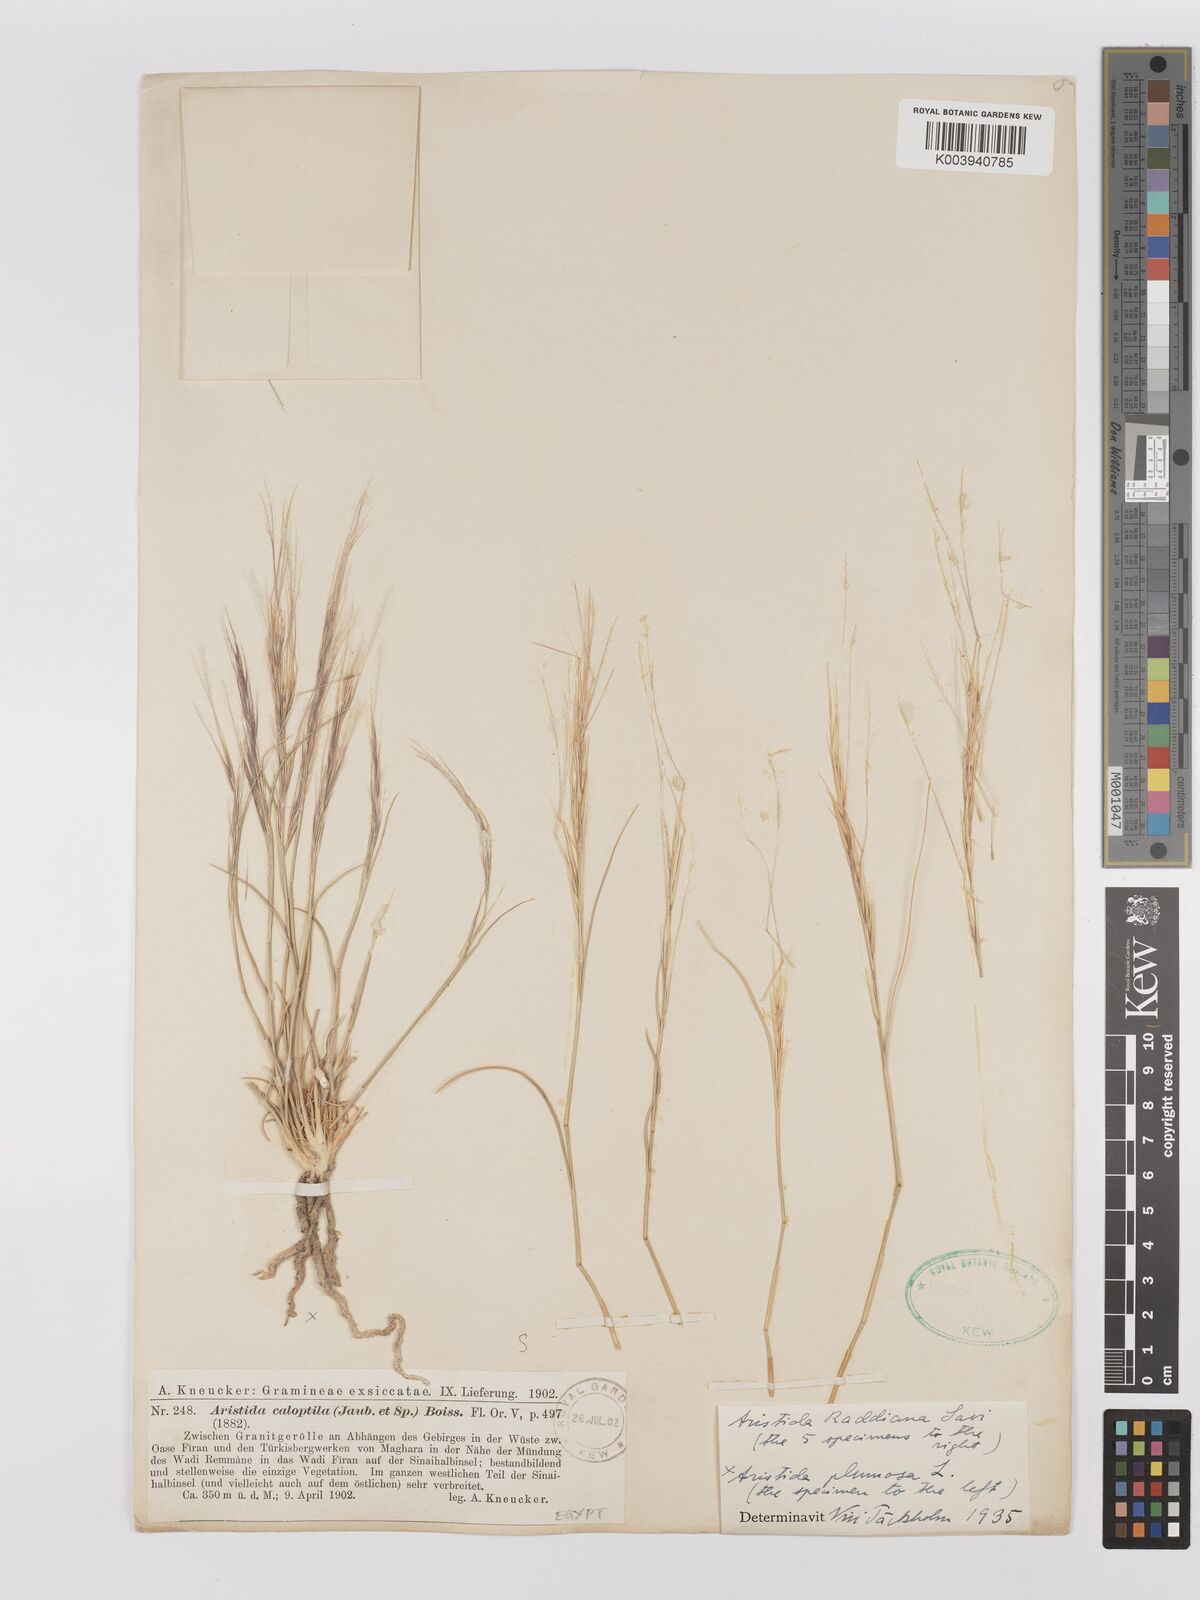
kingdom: Plantae
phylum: Tracheophyta
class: Liliopsida
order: Poales
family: Poaceae
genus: Stipagrostis
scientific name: Stipagrostis raddiana
